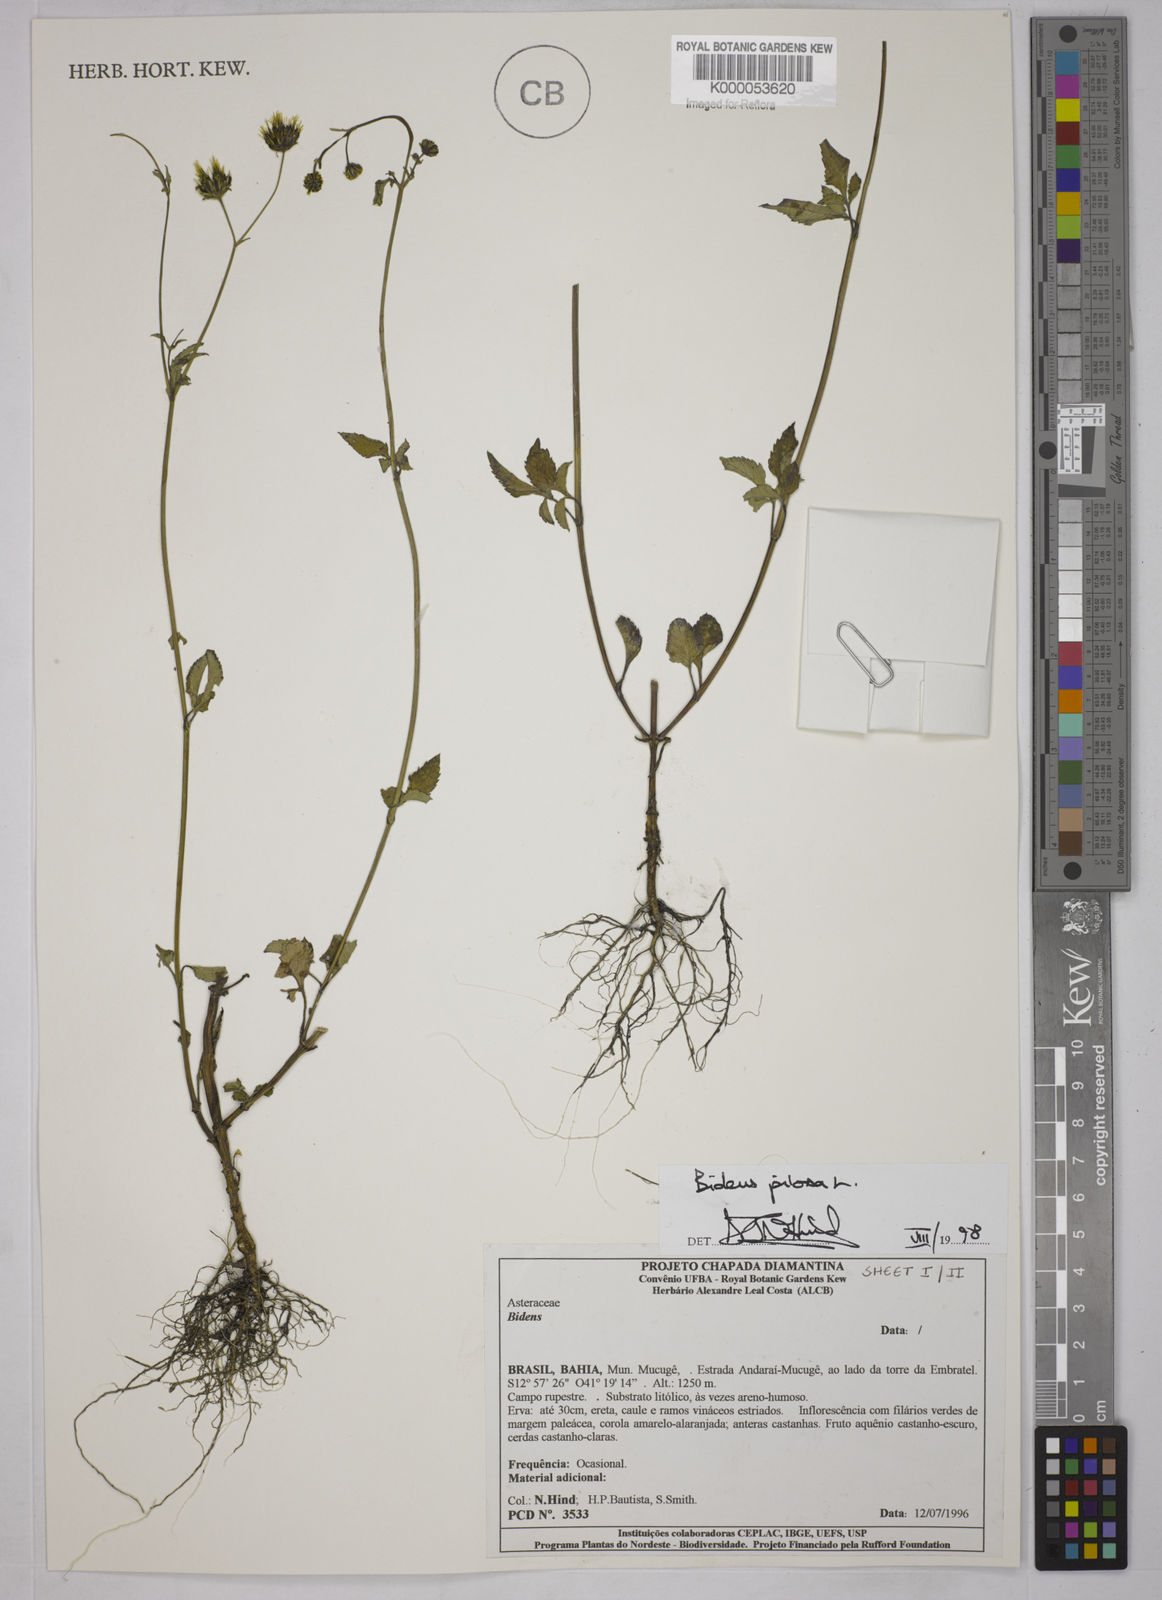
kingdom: Plantae
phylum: Tracheophyta
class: Magnoliopsida
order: Asterales
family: Asteraceae
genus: Bidens
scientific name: Bidens pilosa
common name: Black-jack
